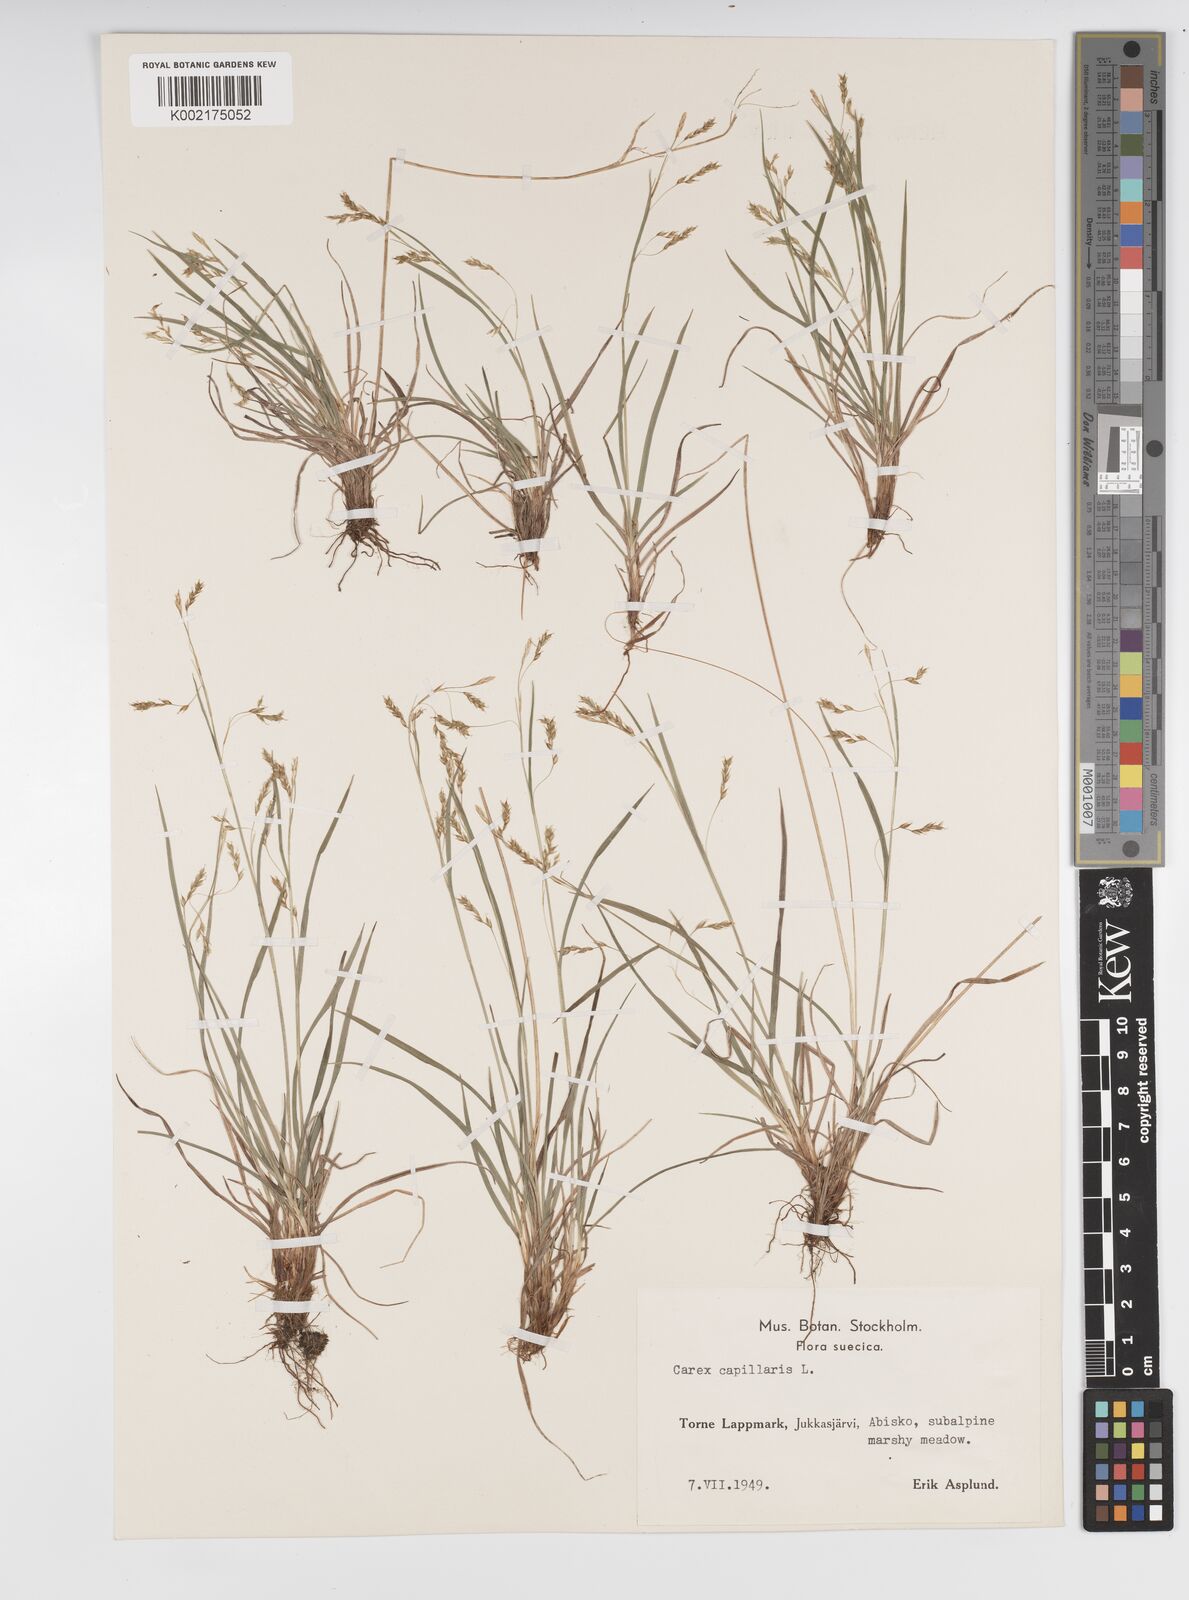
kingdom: Plantae
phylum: Tracheophyta
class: Liliopsida
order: Poales
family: Cyperaceae
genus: Carex
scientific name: Carex capillaris
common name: Hair sedge
